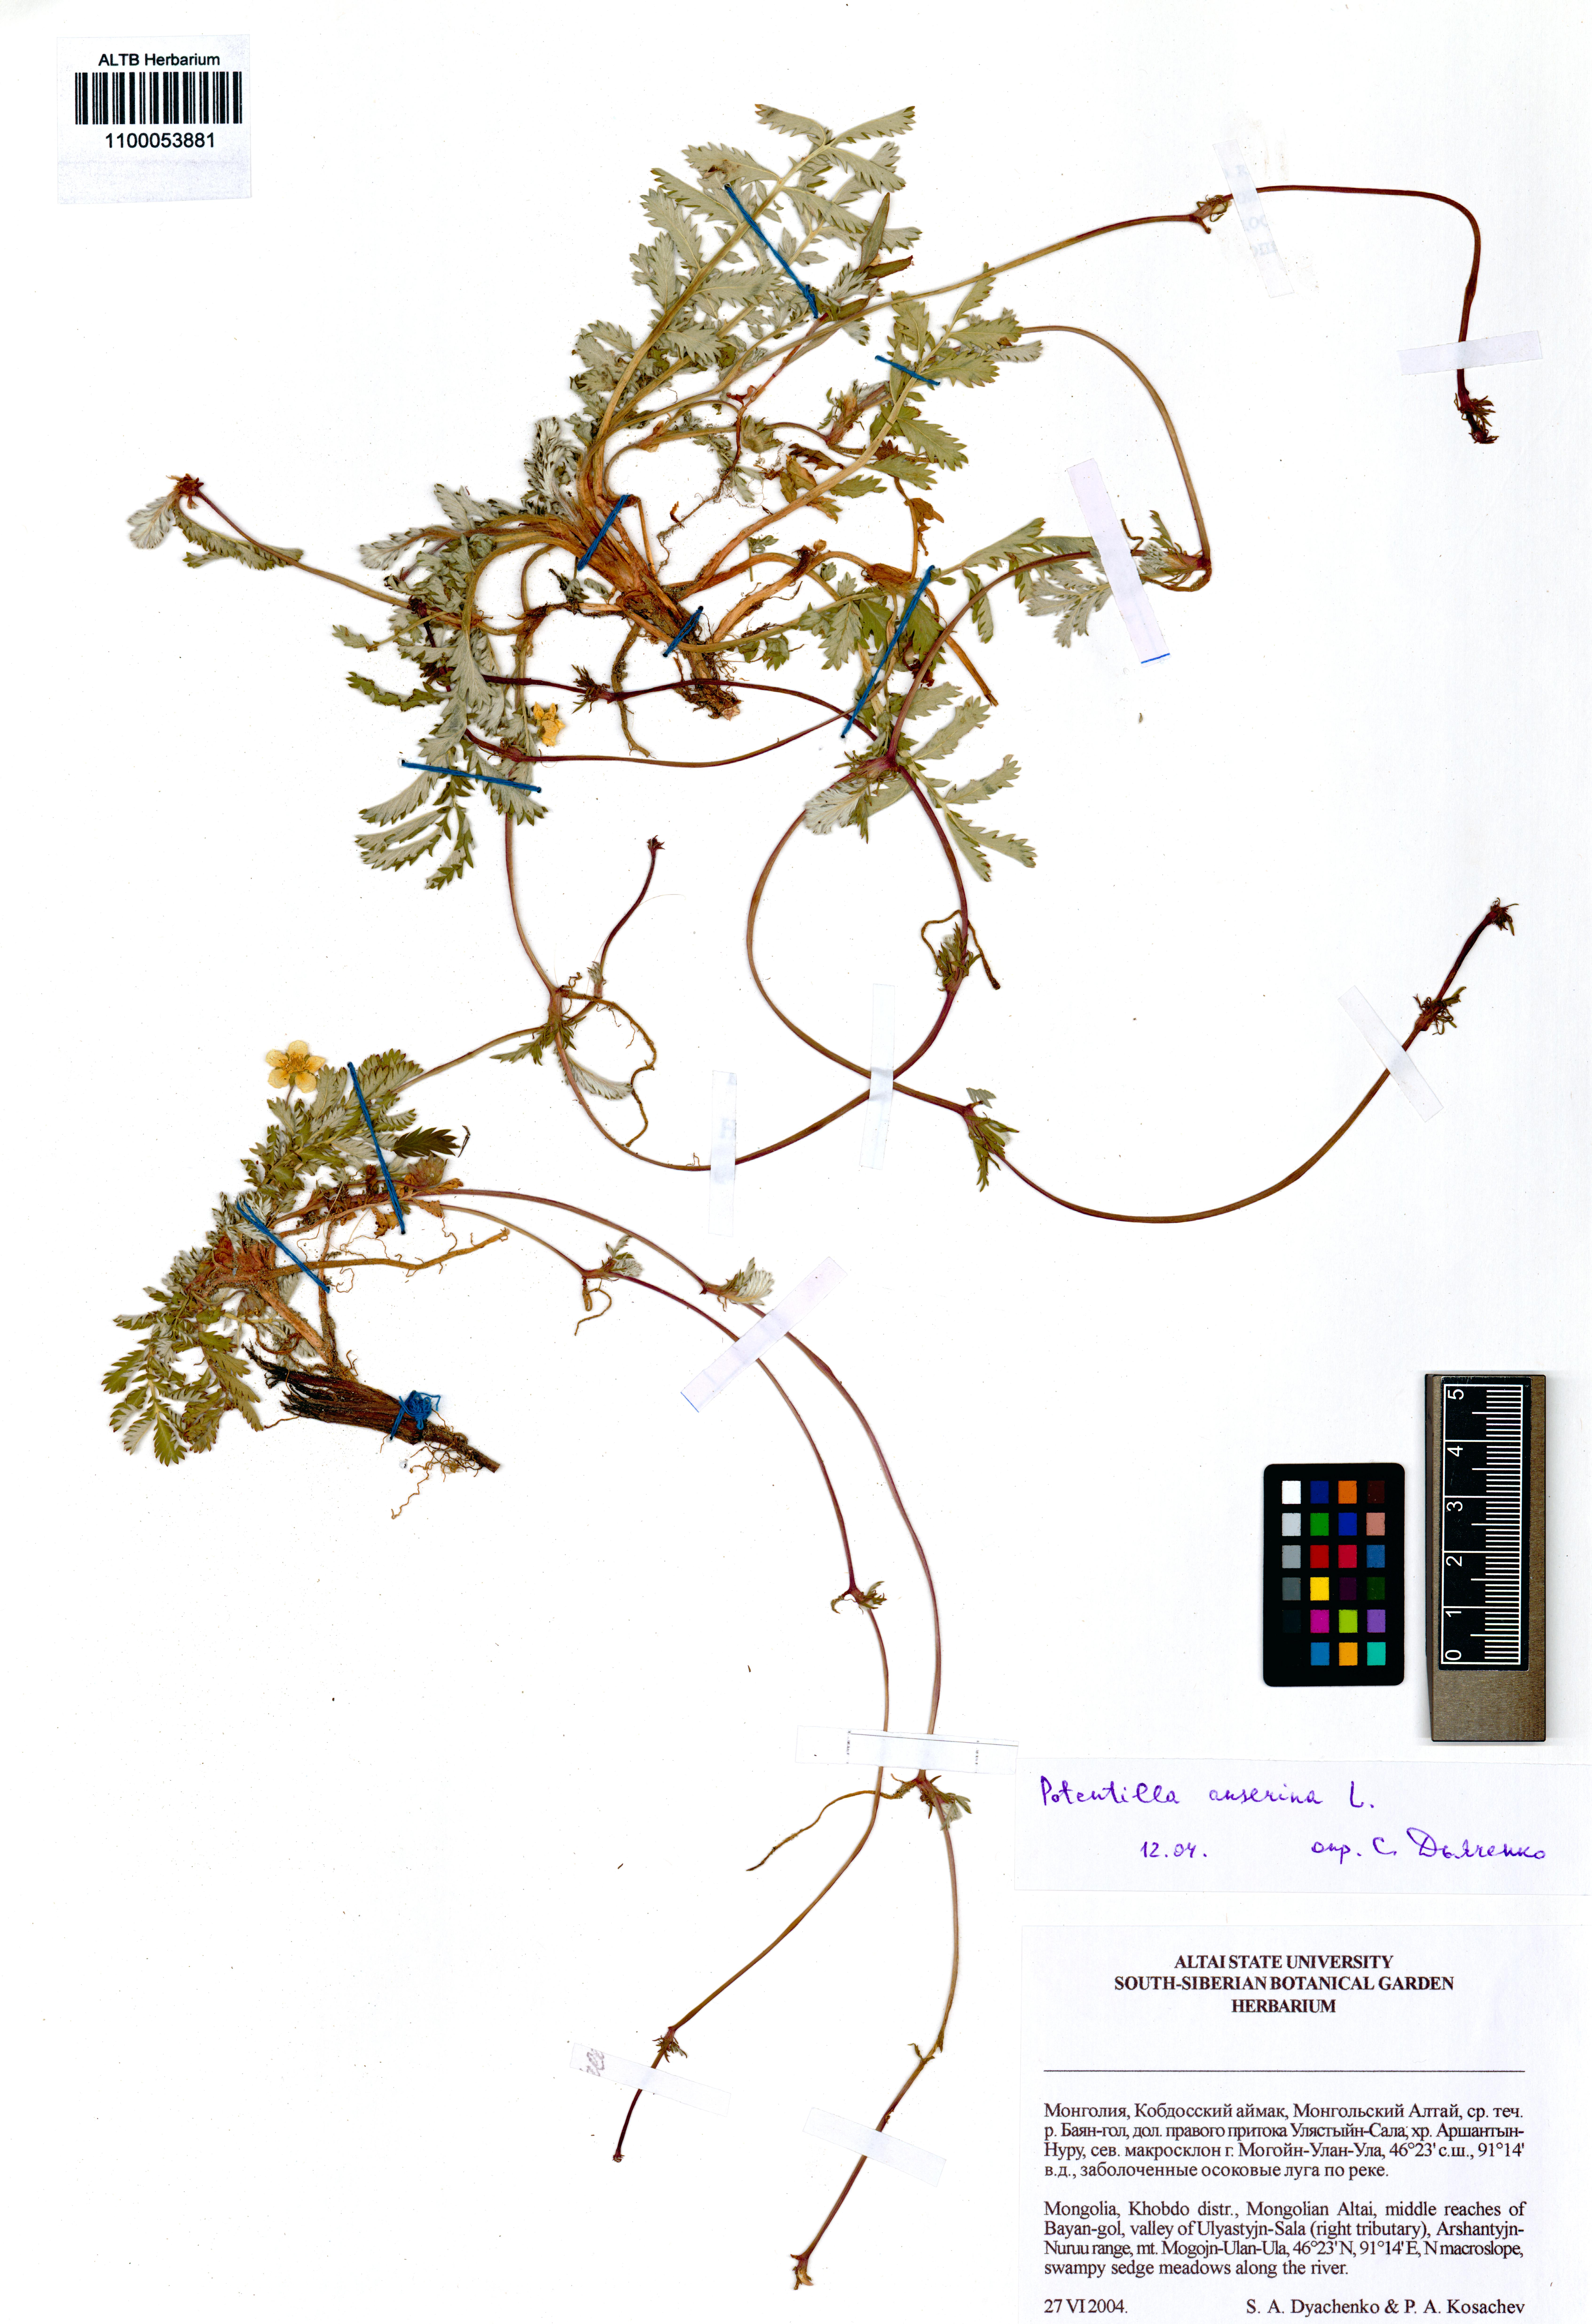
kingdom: Plantae
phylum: Tracheophyta
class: Magnoliopsida
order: Rosales
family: Rosaceae
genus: Argentina
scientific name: Argentina anserina
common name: Common silverweed
